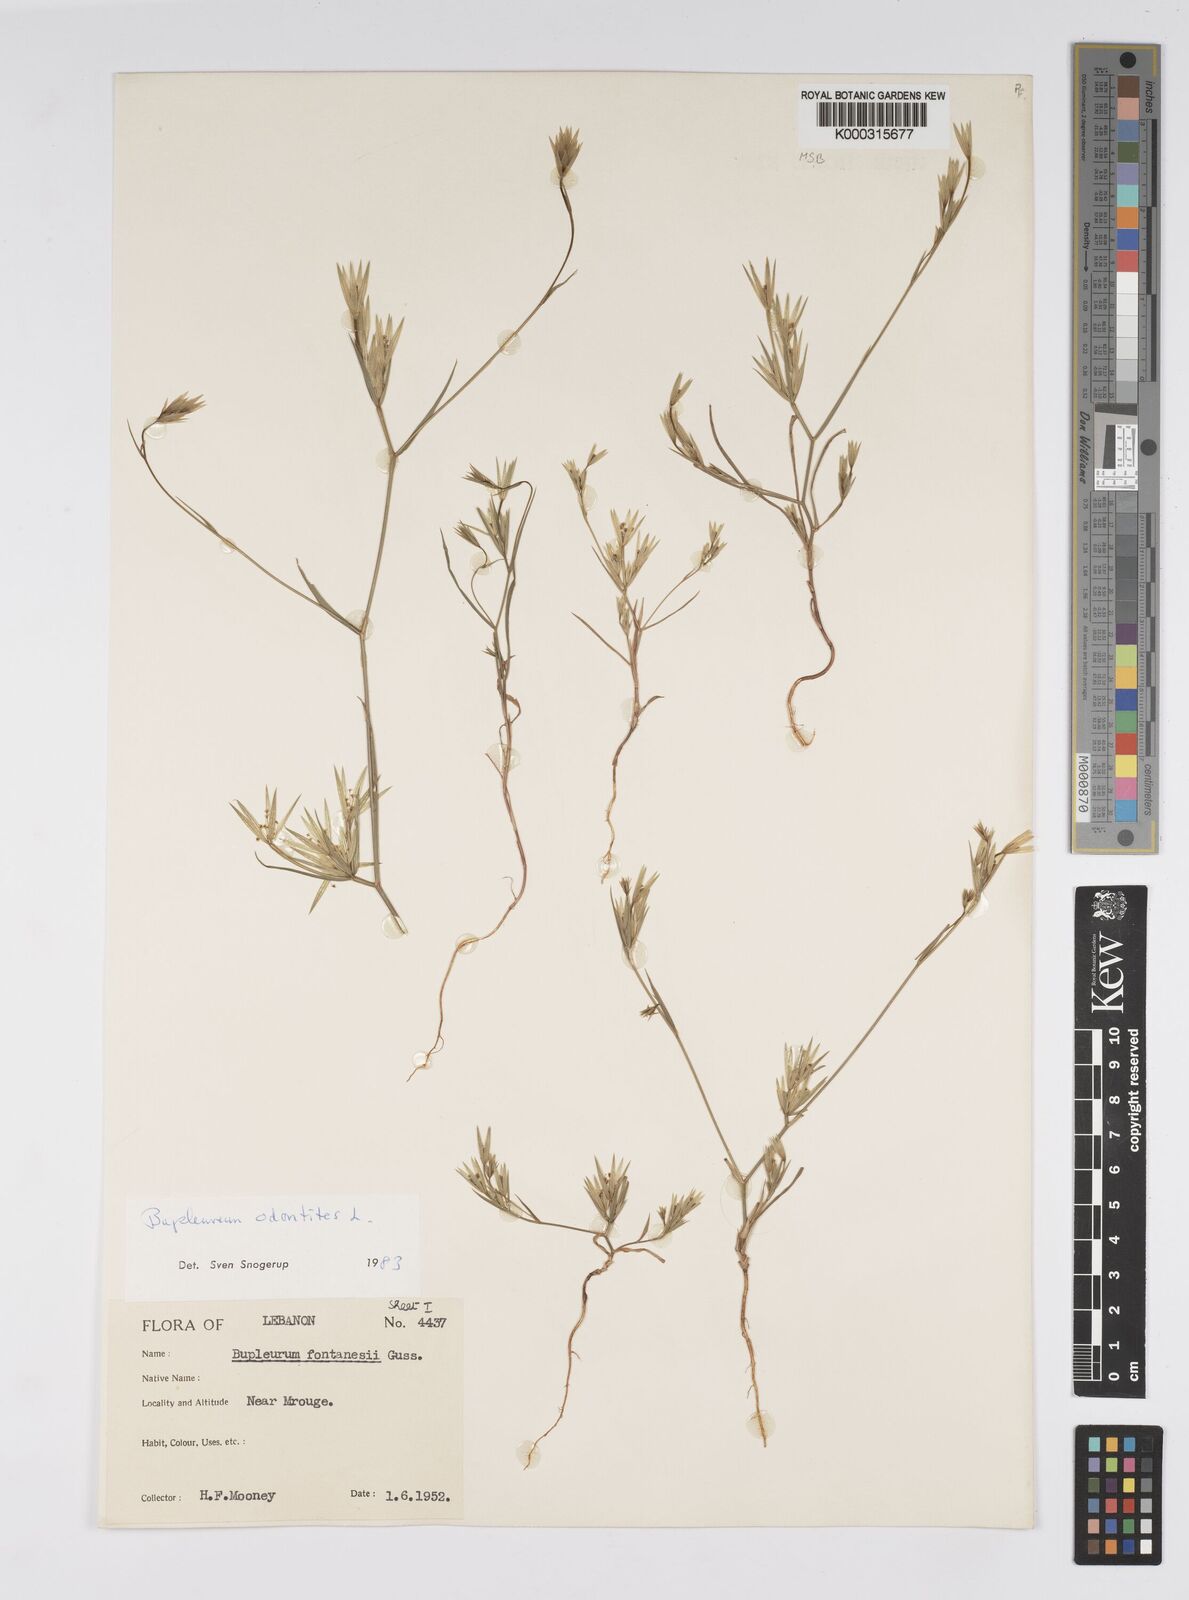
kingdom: Plantae
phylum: Tracheophyta
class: Magnoliopsida
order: Apiales
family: Apiaceae
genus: Bupleurum
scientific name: Bupleurum odontites
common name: Narrowleaf thorow wax
